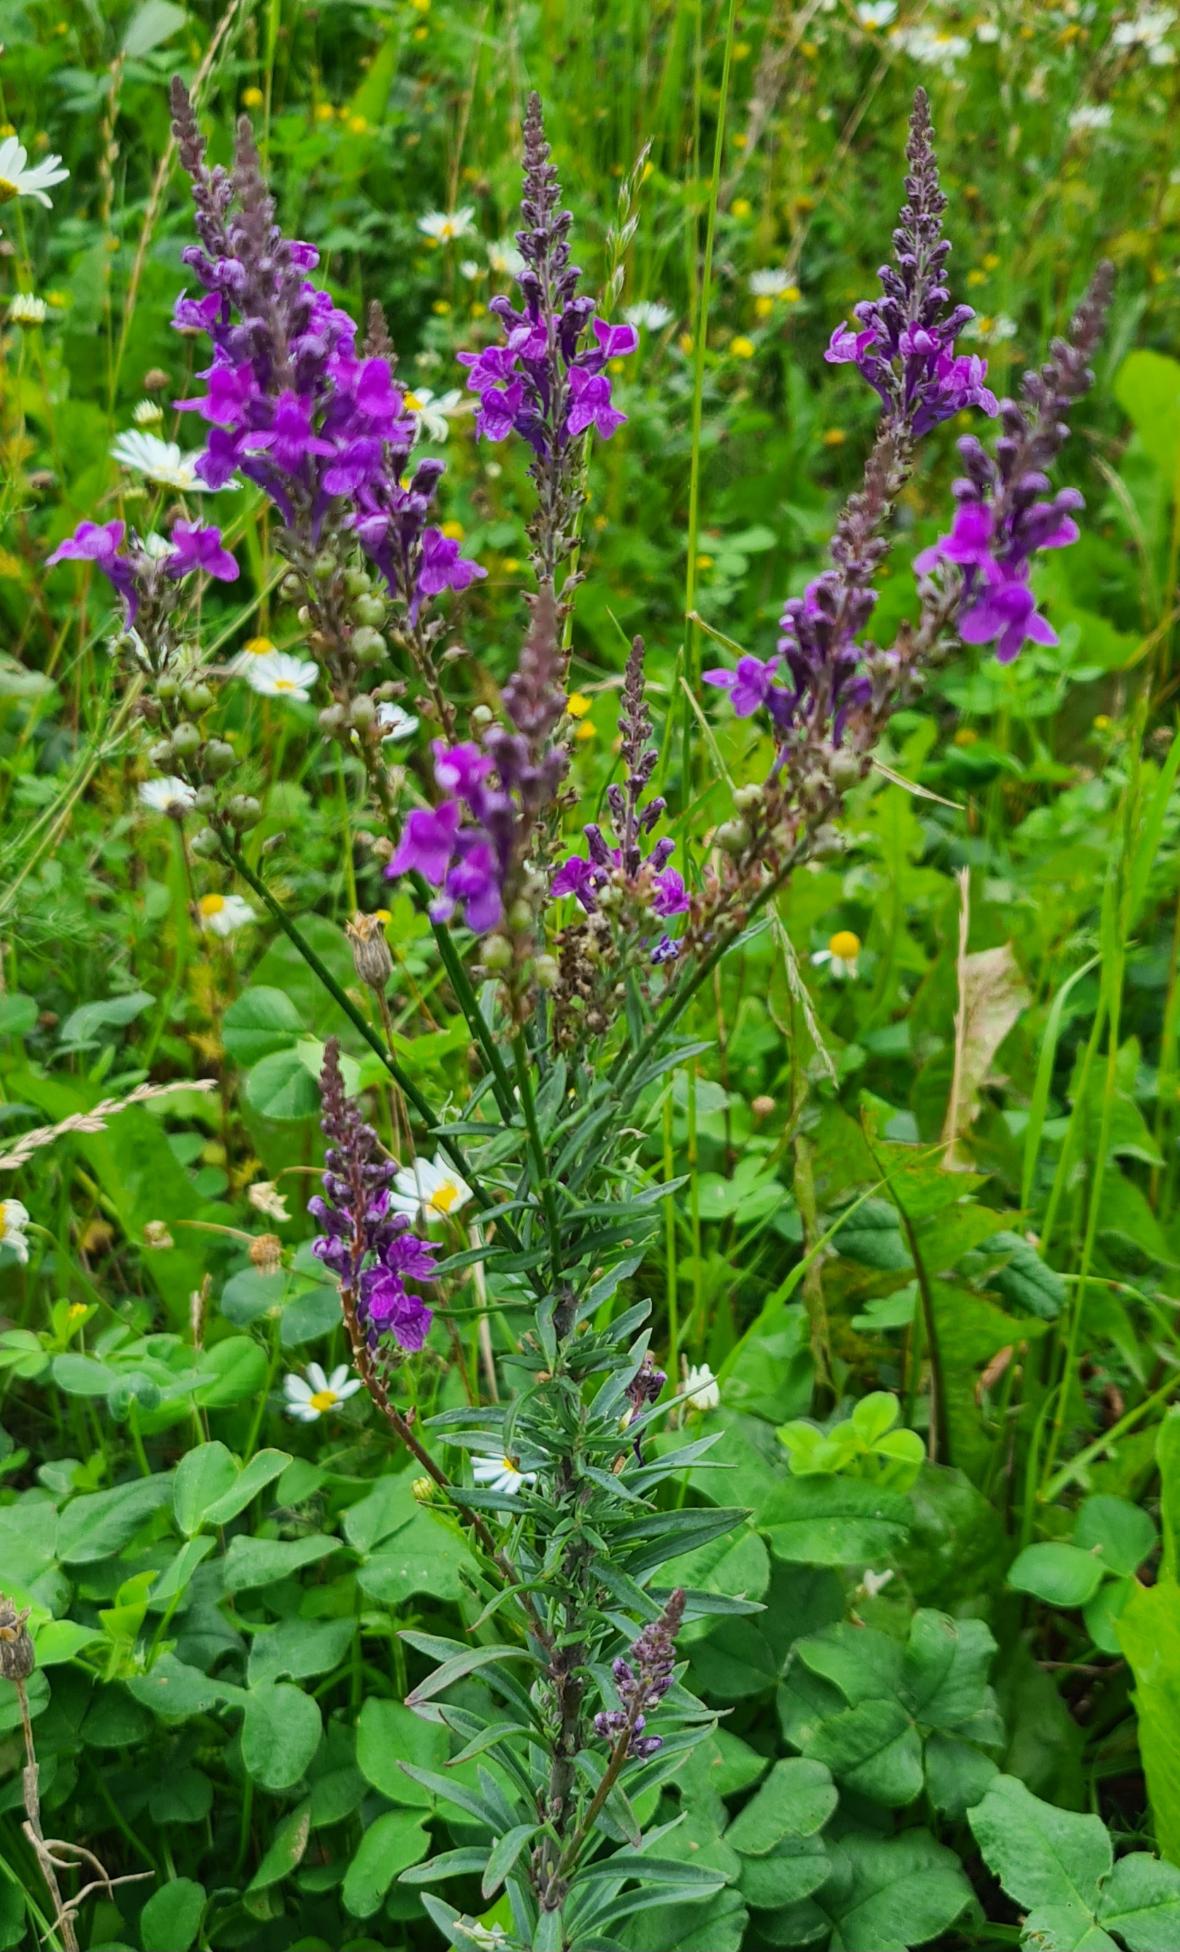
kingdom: Plantae
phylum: Tracheophyta
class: Magnoliopsida
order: Lamiales
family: Plantaginaceae
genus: Linaria
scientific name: Linaria purpurea
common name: Purpur-torskemund
